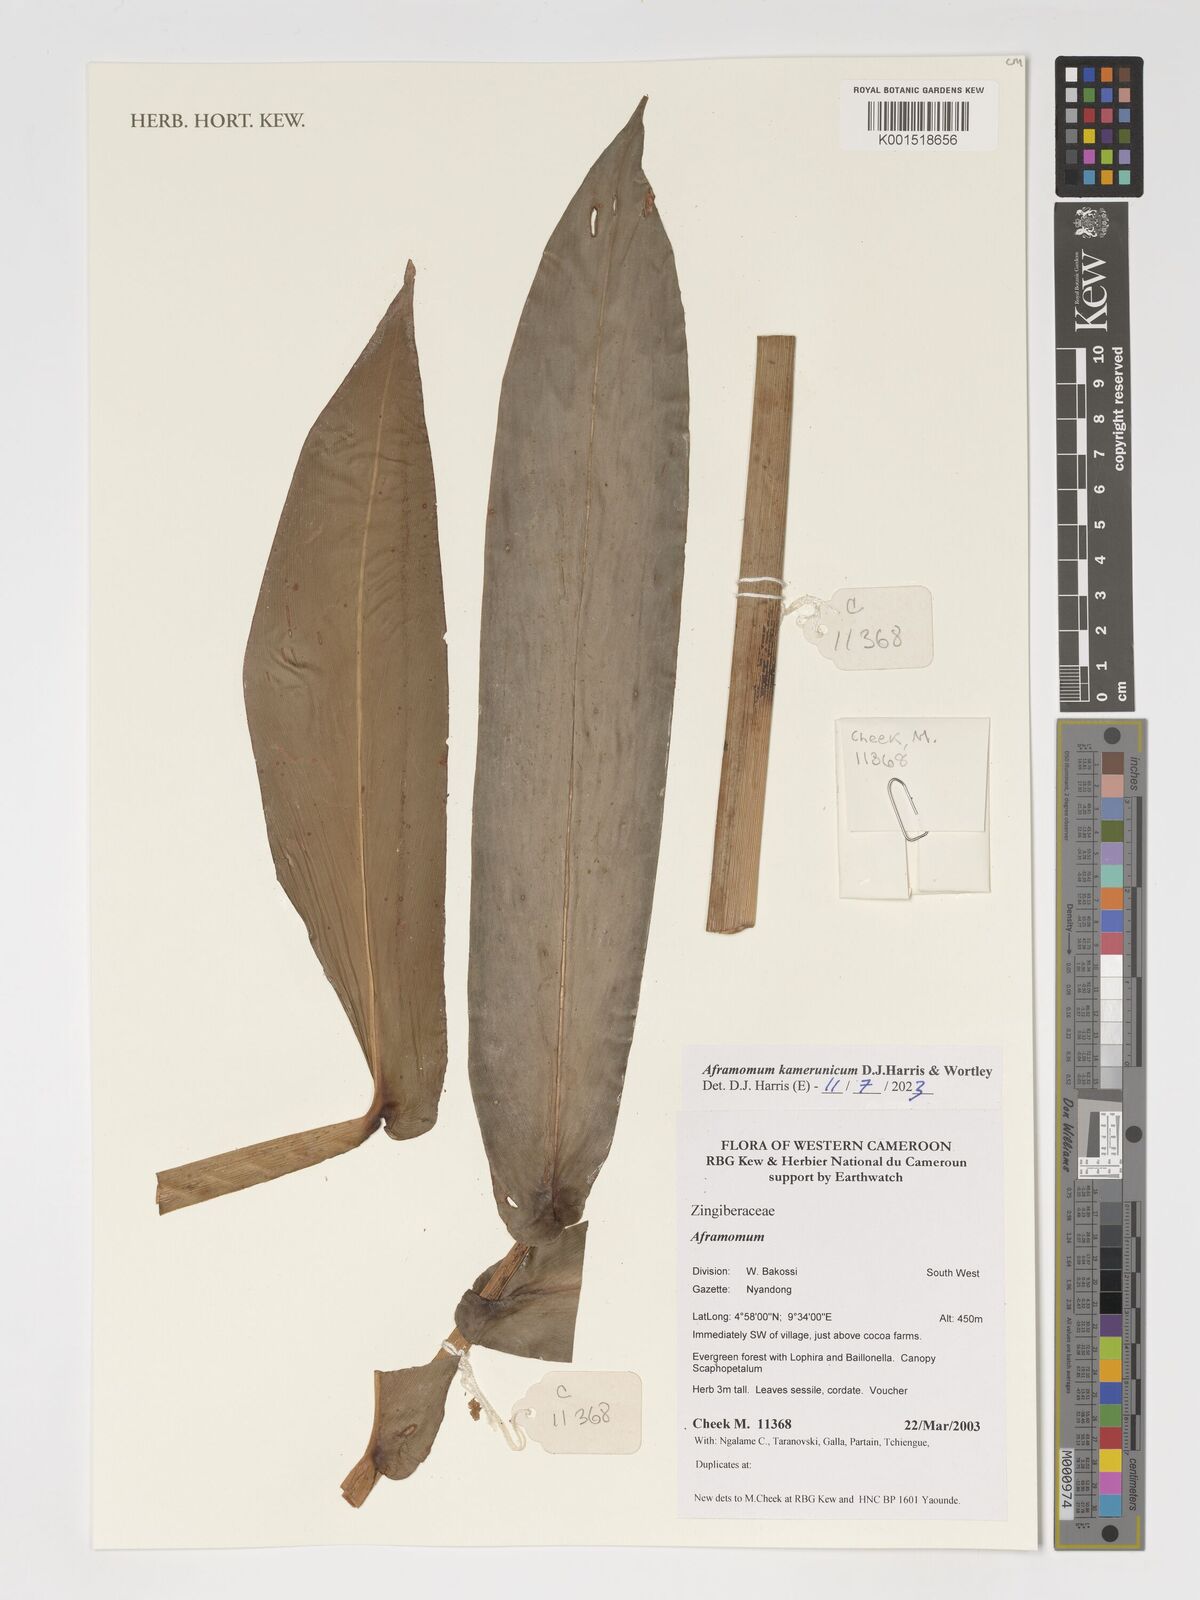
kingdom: Plantae
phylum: Tracheophyta
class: Liliopsida
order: Zingiberales
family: Zingiberaceae
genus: Aframomum
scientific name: Aframomum kamerunicum
